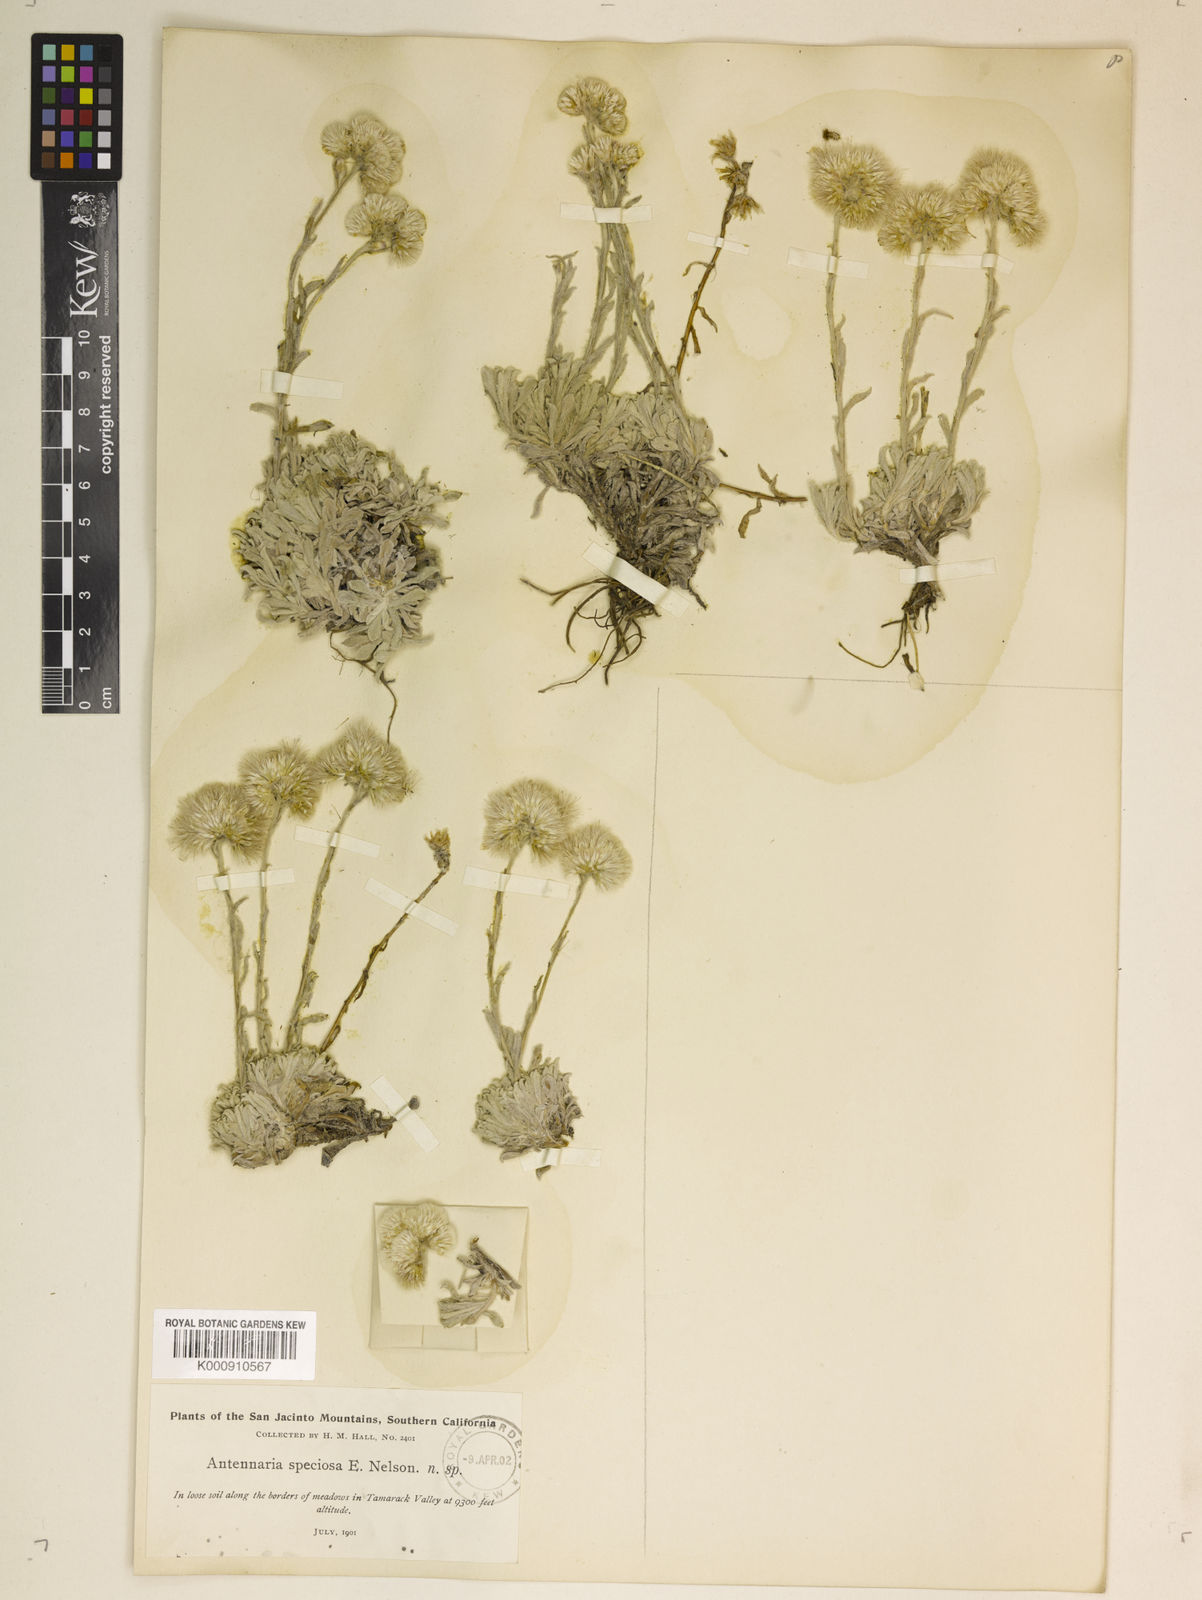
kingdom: Plantae
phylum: Tracheophyta
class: Magnoliopsida
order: Asterales
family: Asteraceae
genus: Antennaria
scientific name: Antennaria rosea
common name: Rosy pussytoes
